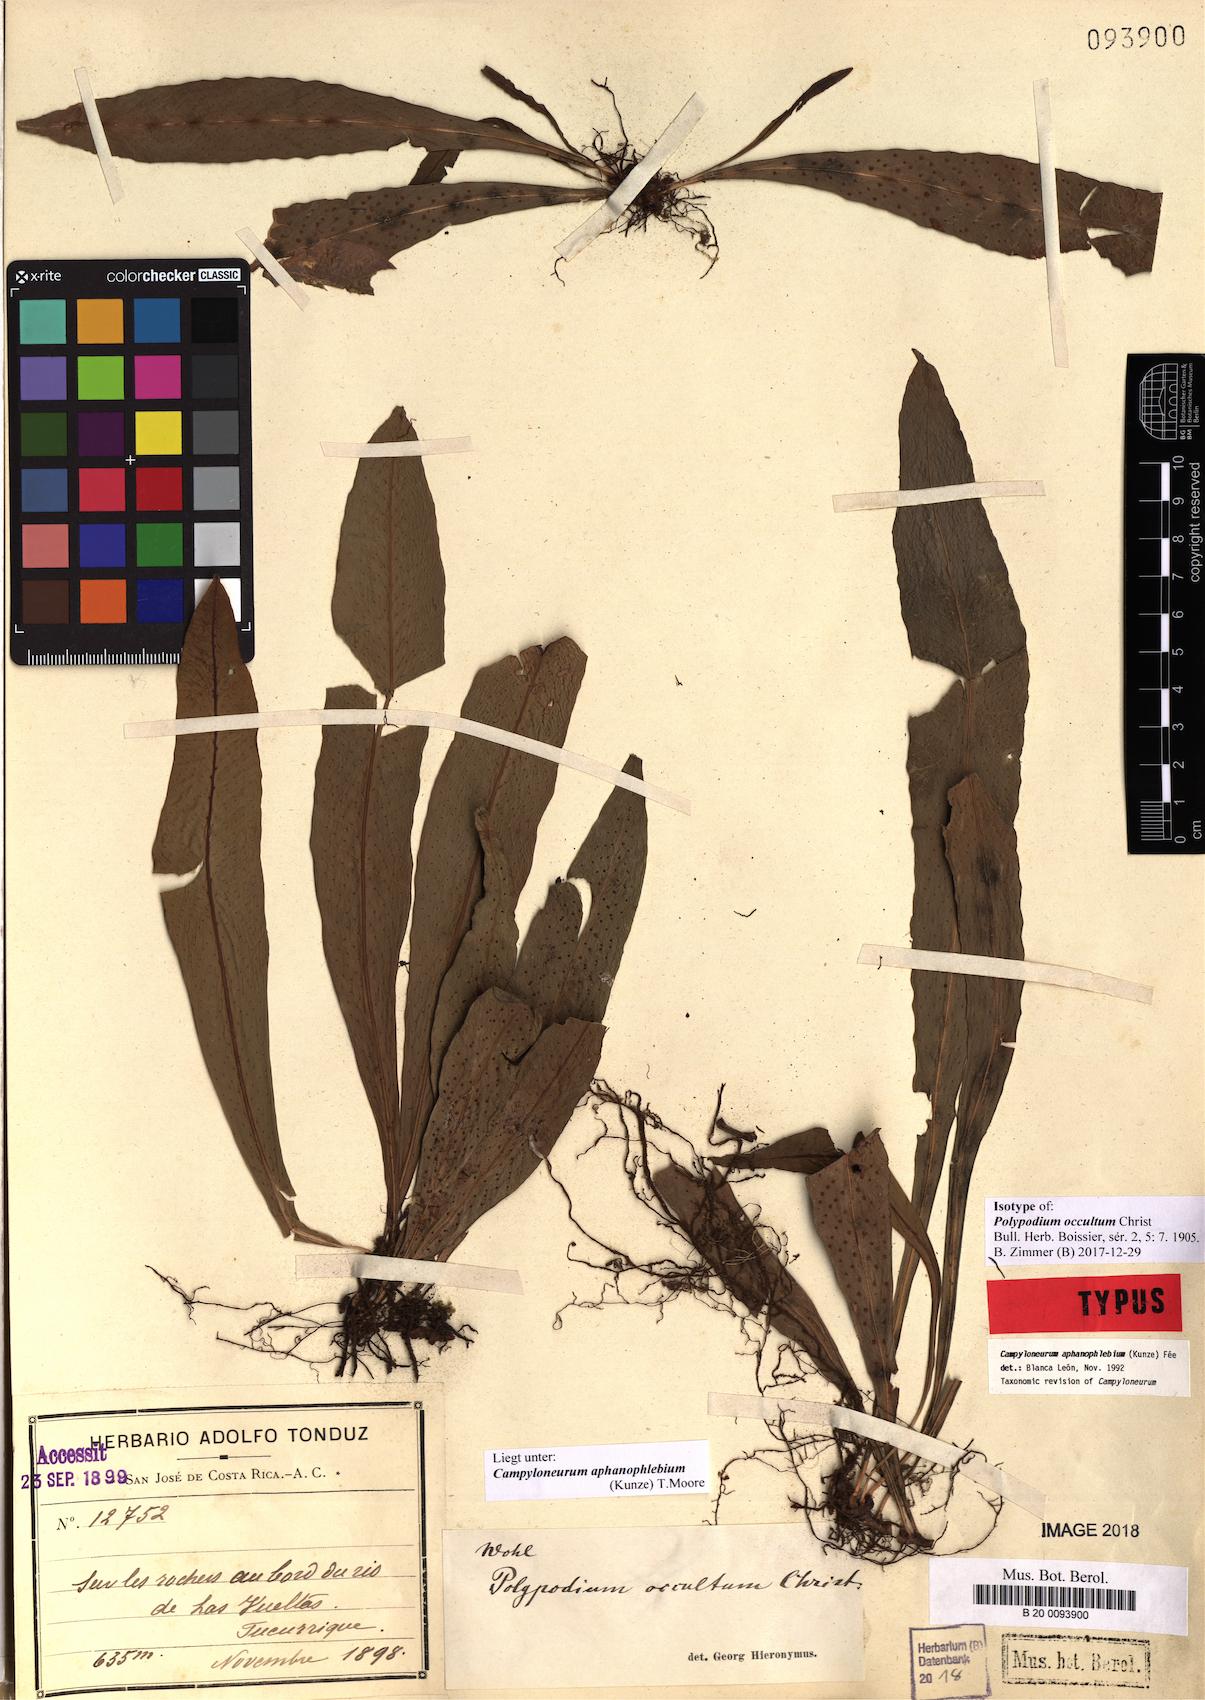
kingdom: Plantae
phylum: Tracheophyta
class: Polypodiopsida
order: Polypodiales
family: Polypodiaceae
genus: Campyloneurum
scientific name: Campyloneurum aphanophlebium
